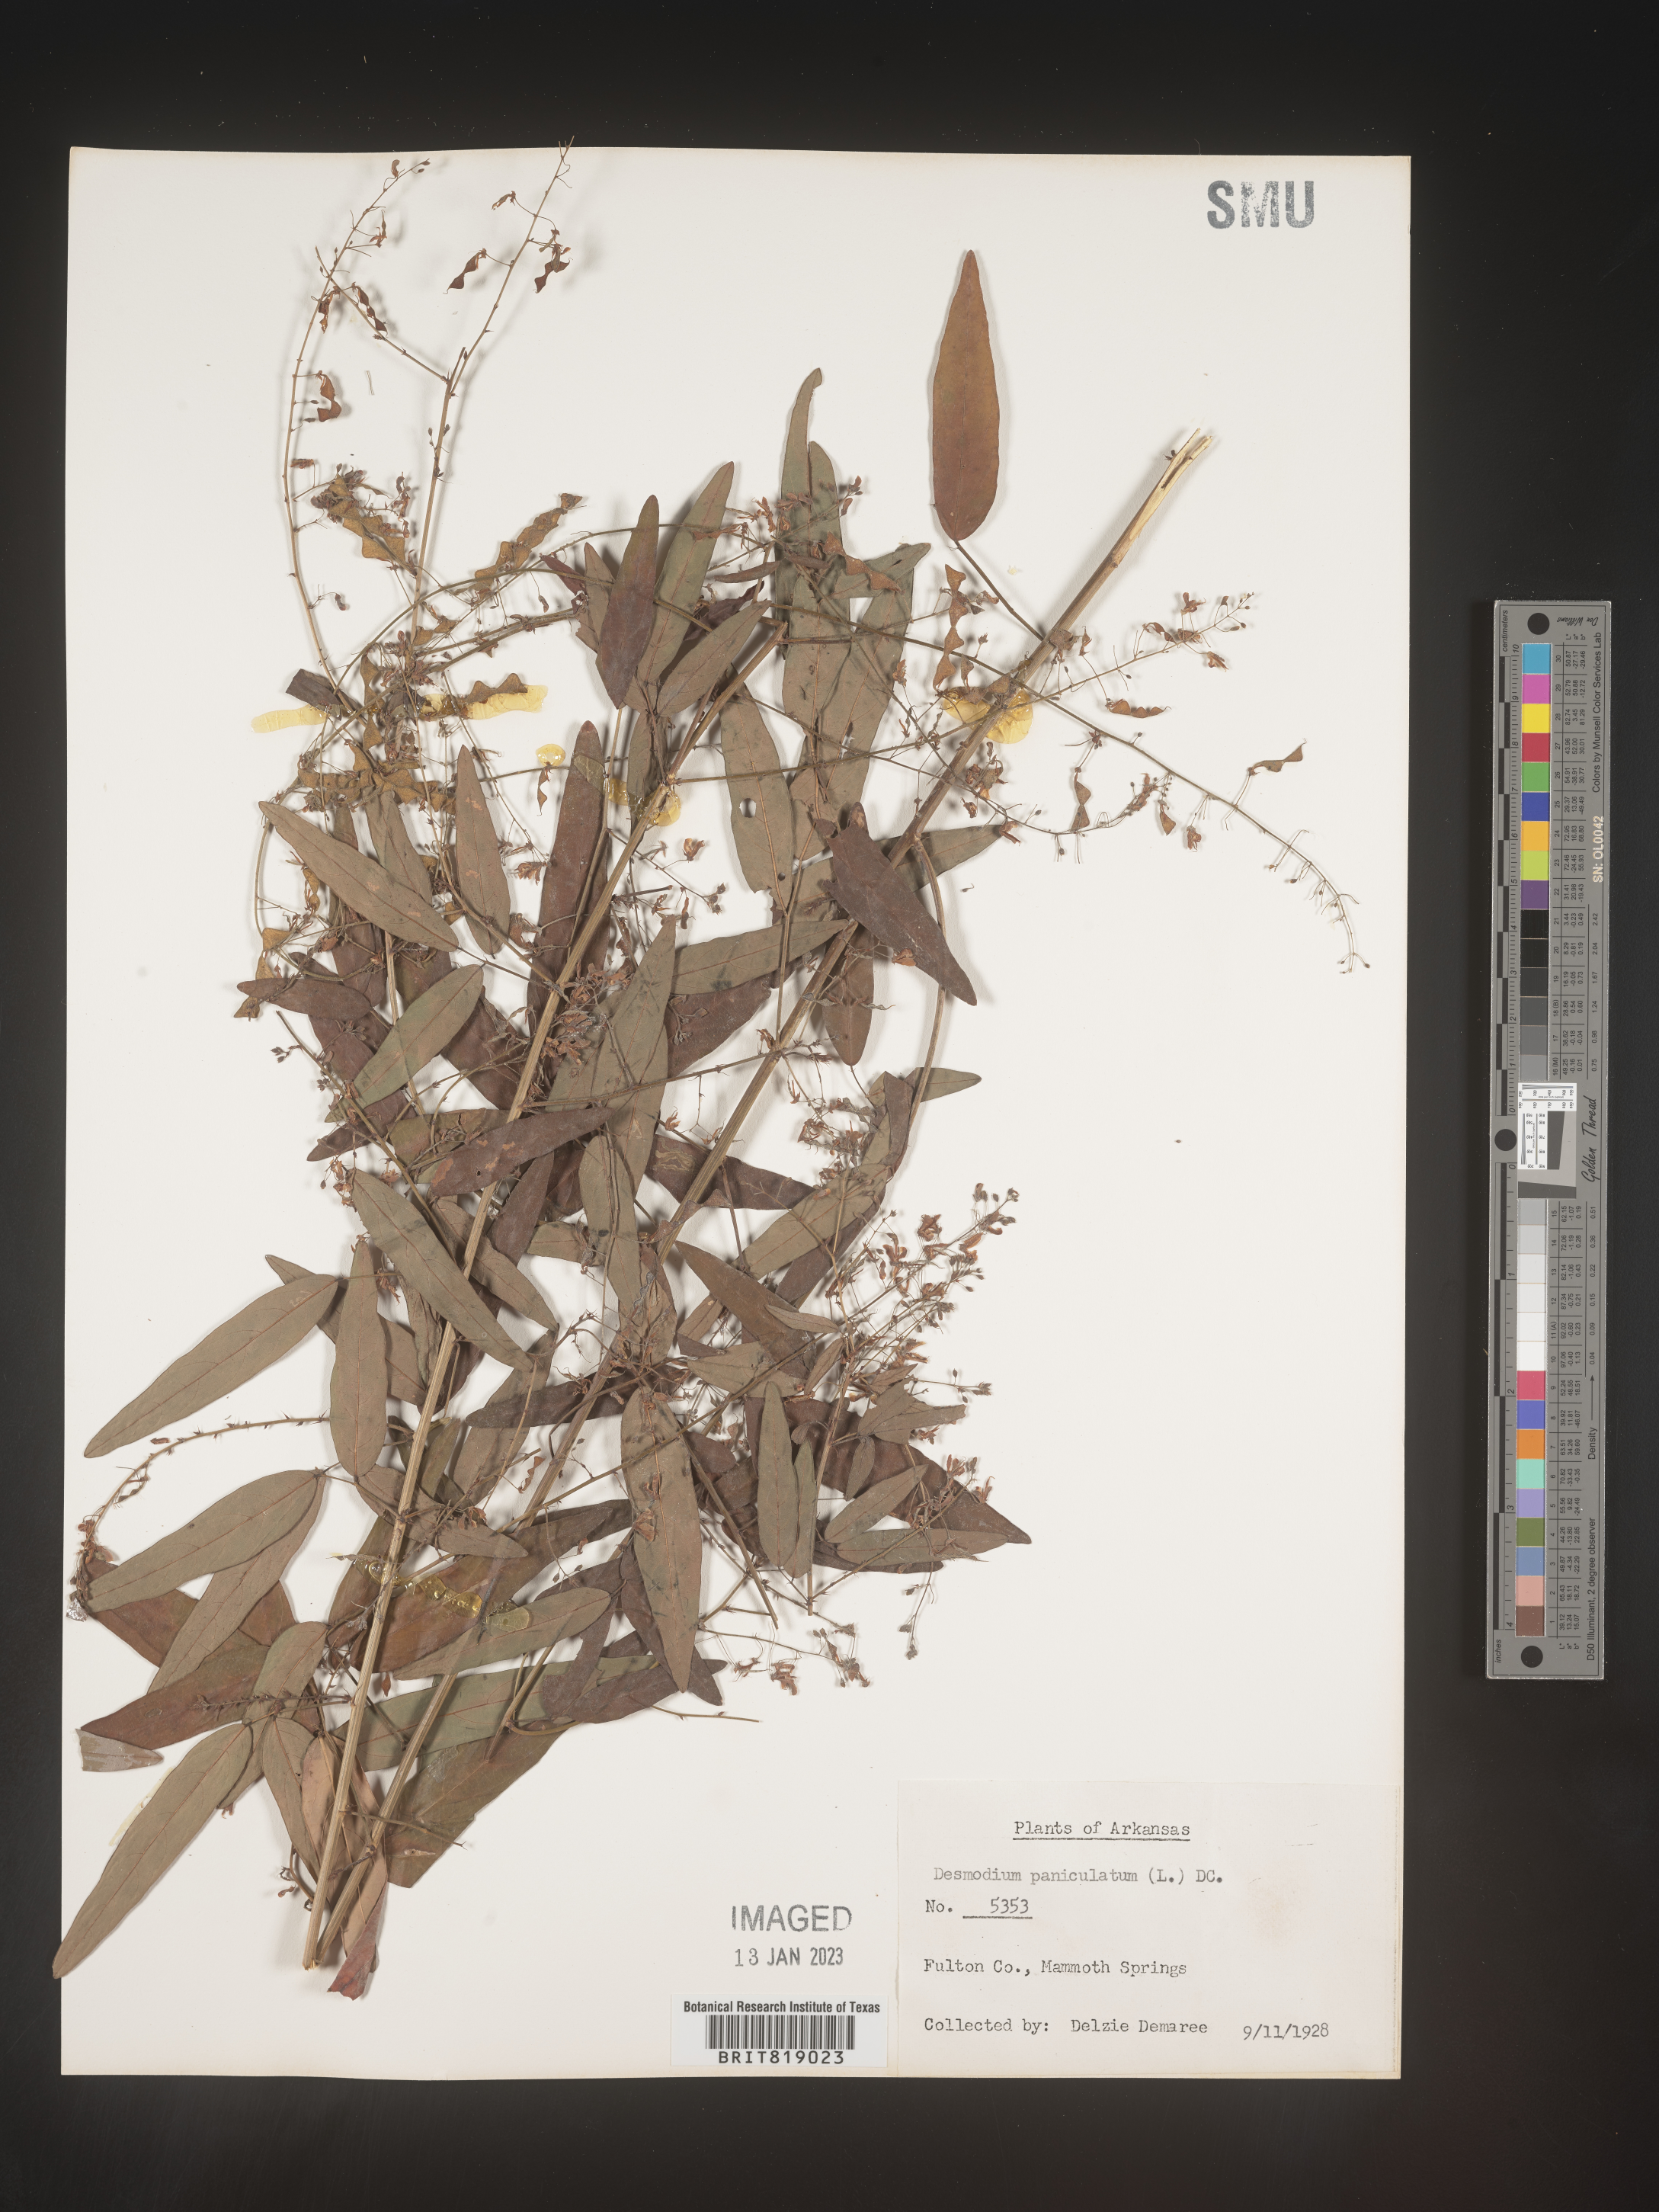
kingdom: Plantae
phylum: Tracheophyta
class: Magnoliopsida
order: Fabales
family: Fabaceae
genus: Desmodium
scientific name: Desmodium paniculatum
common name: Panicled tick-clover
